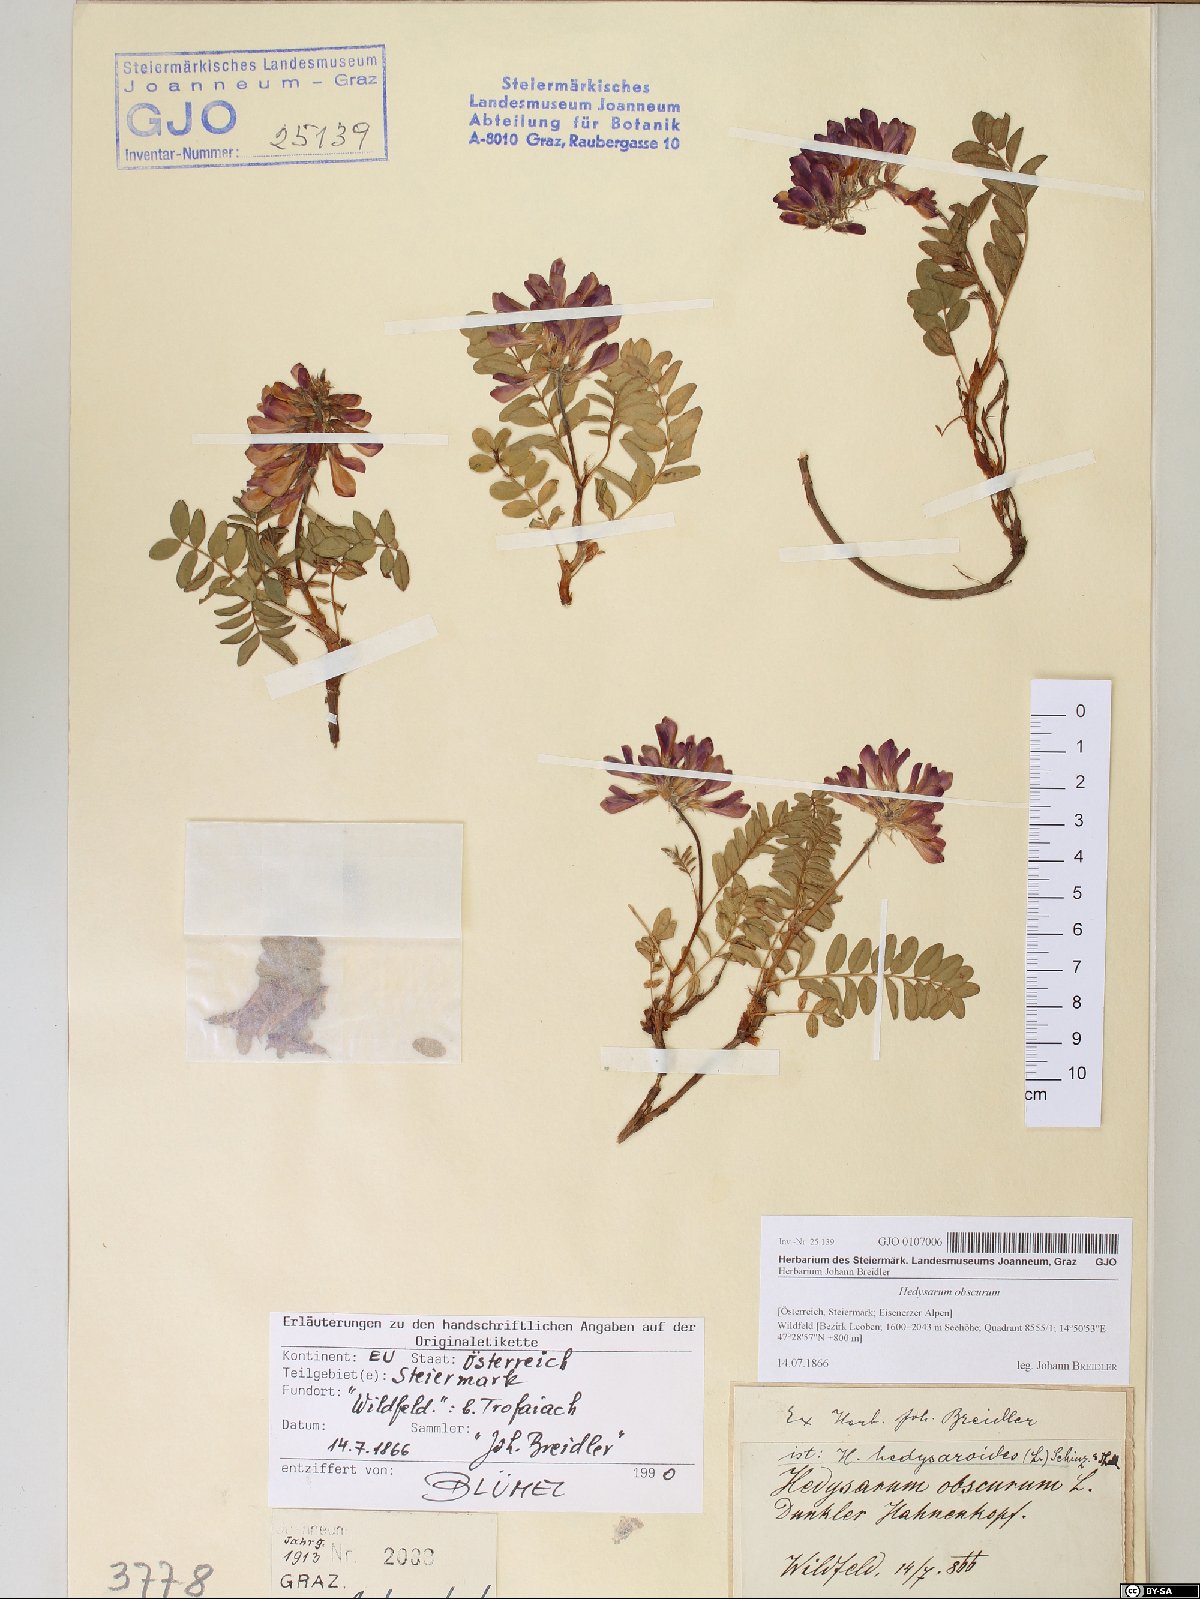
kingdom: Plantae
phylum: Tracheophyta
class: Magnoliopsida
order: Fabales
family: Fabaceae
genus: Hedysarum
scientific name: Hedysarum hedysaroides
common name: Alpine french-honeysuckle
